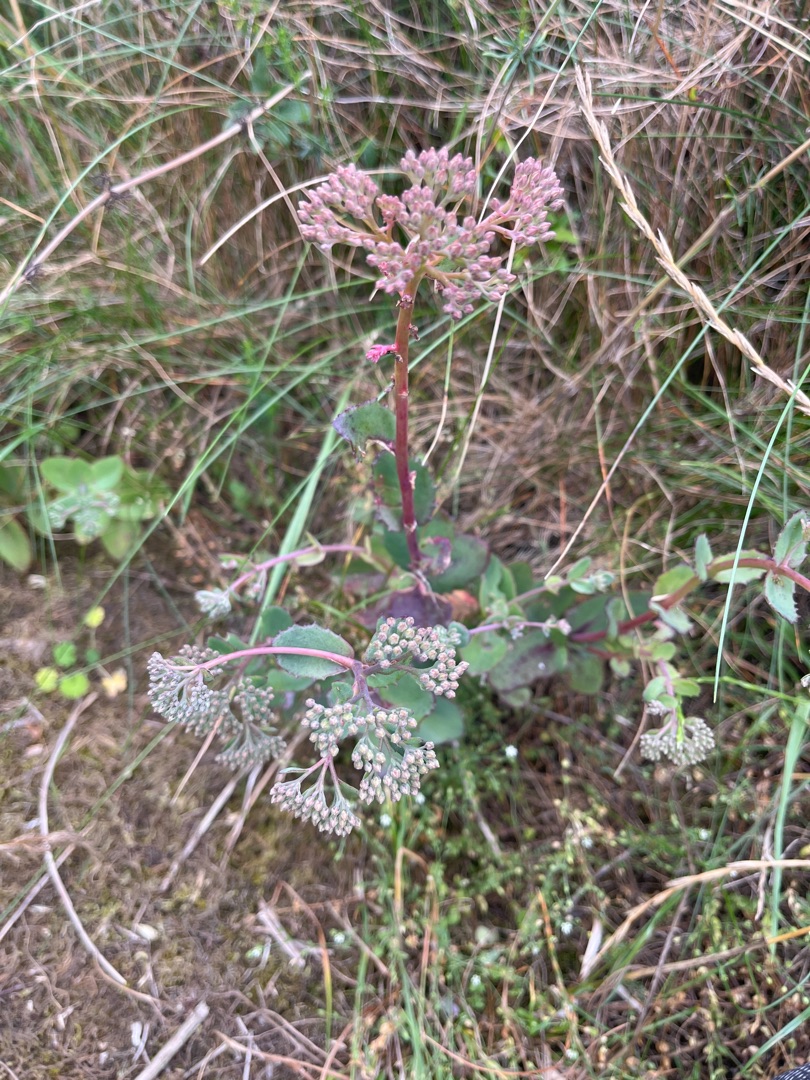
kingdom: Plantae
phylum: Tracheophyta
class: Magnoliopsida
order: Saxifragales
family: Crassulaceae
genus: Hylotelephium
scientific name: Hylotelephium maximum
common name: Almindelig sankthansurt
